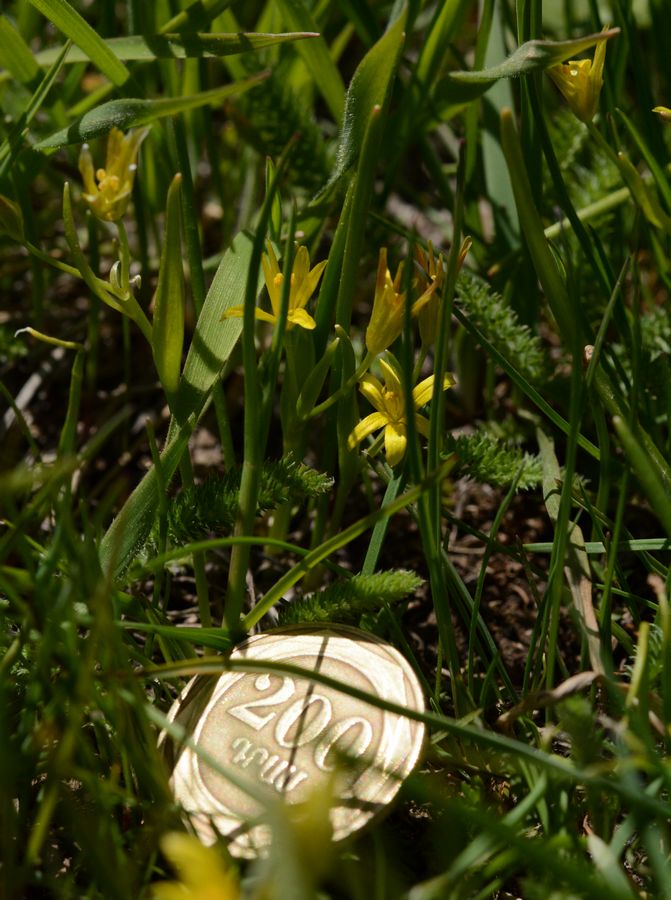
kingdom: Plantae
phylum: Tracheophyta
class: Liliopsida
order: Liliales
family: Liliaceae
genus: Gagea
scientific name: Gagea glacialis
